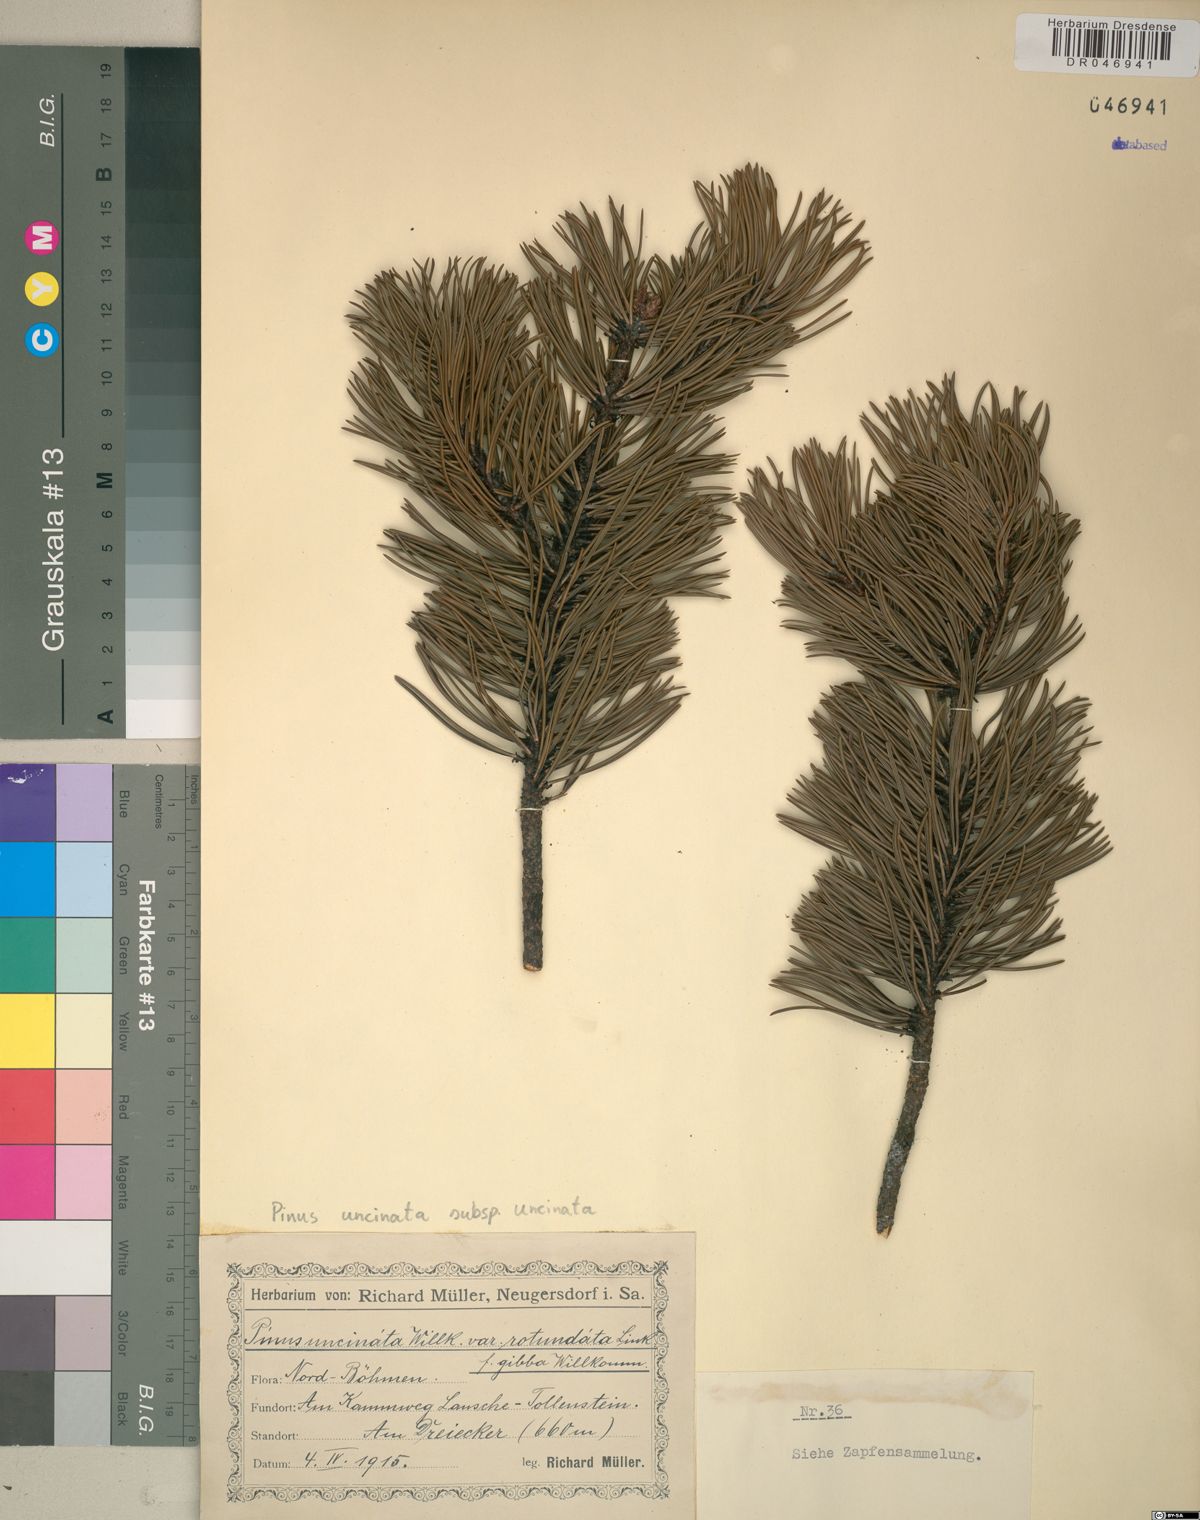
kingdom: Plantae
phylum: Tracheophyta
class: Pinopsida
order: Pinales
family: Pinaceae
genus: Pinus
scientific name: Pinus uncinata
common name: Mountain pine
